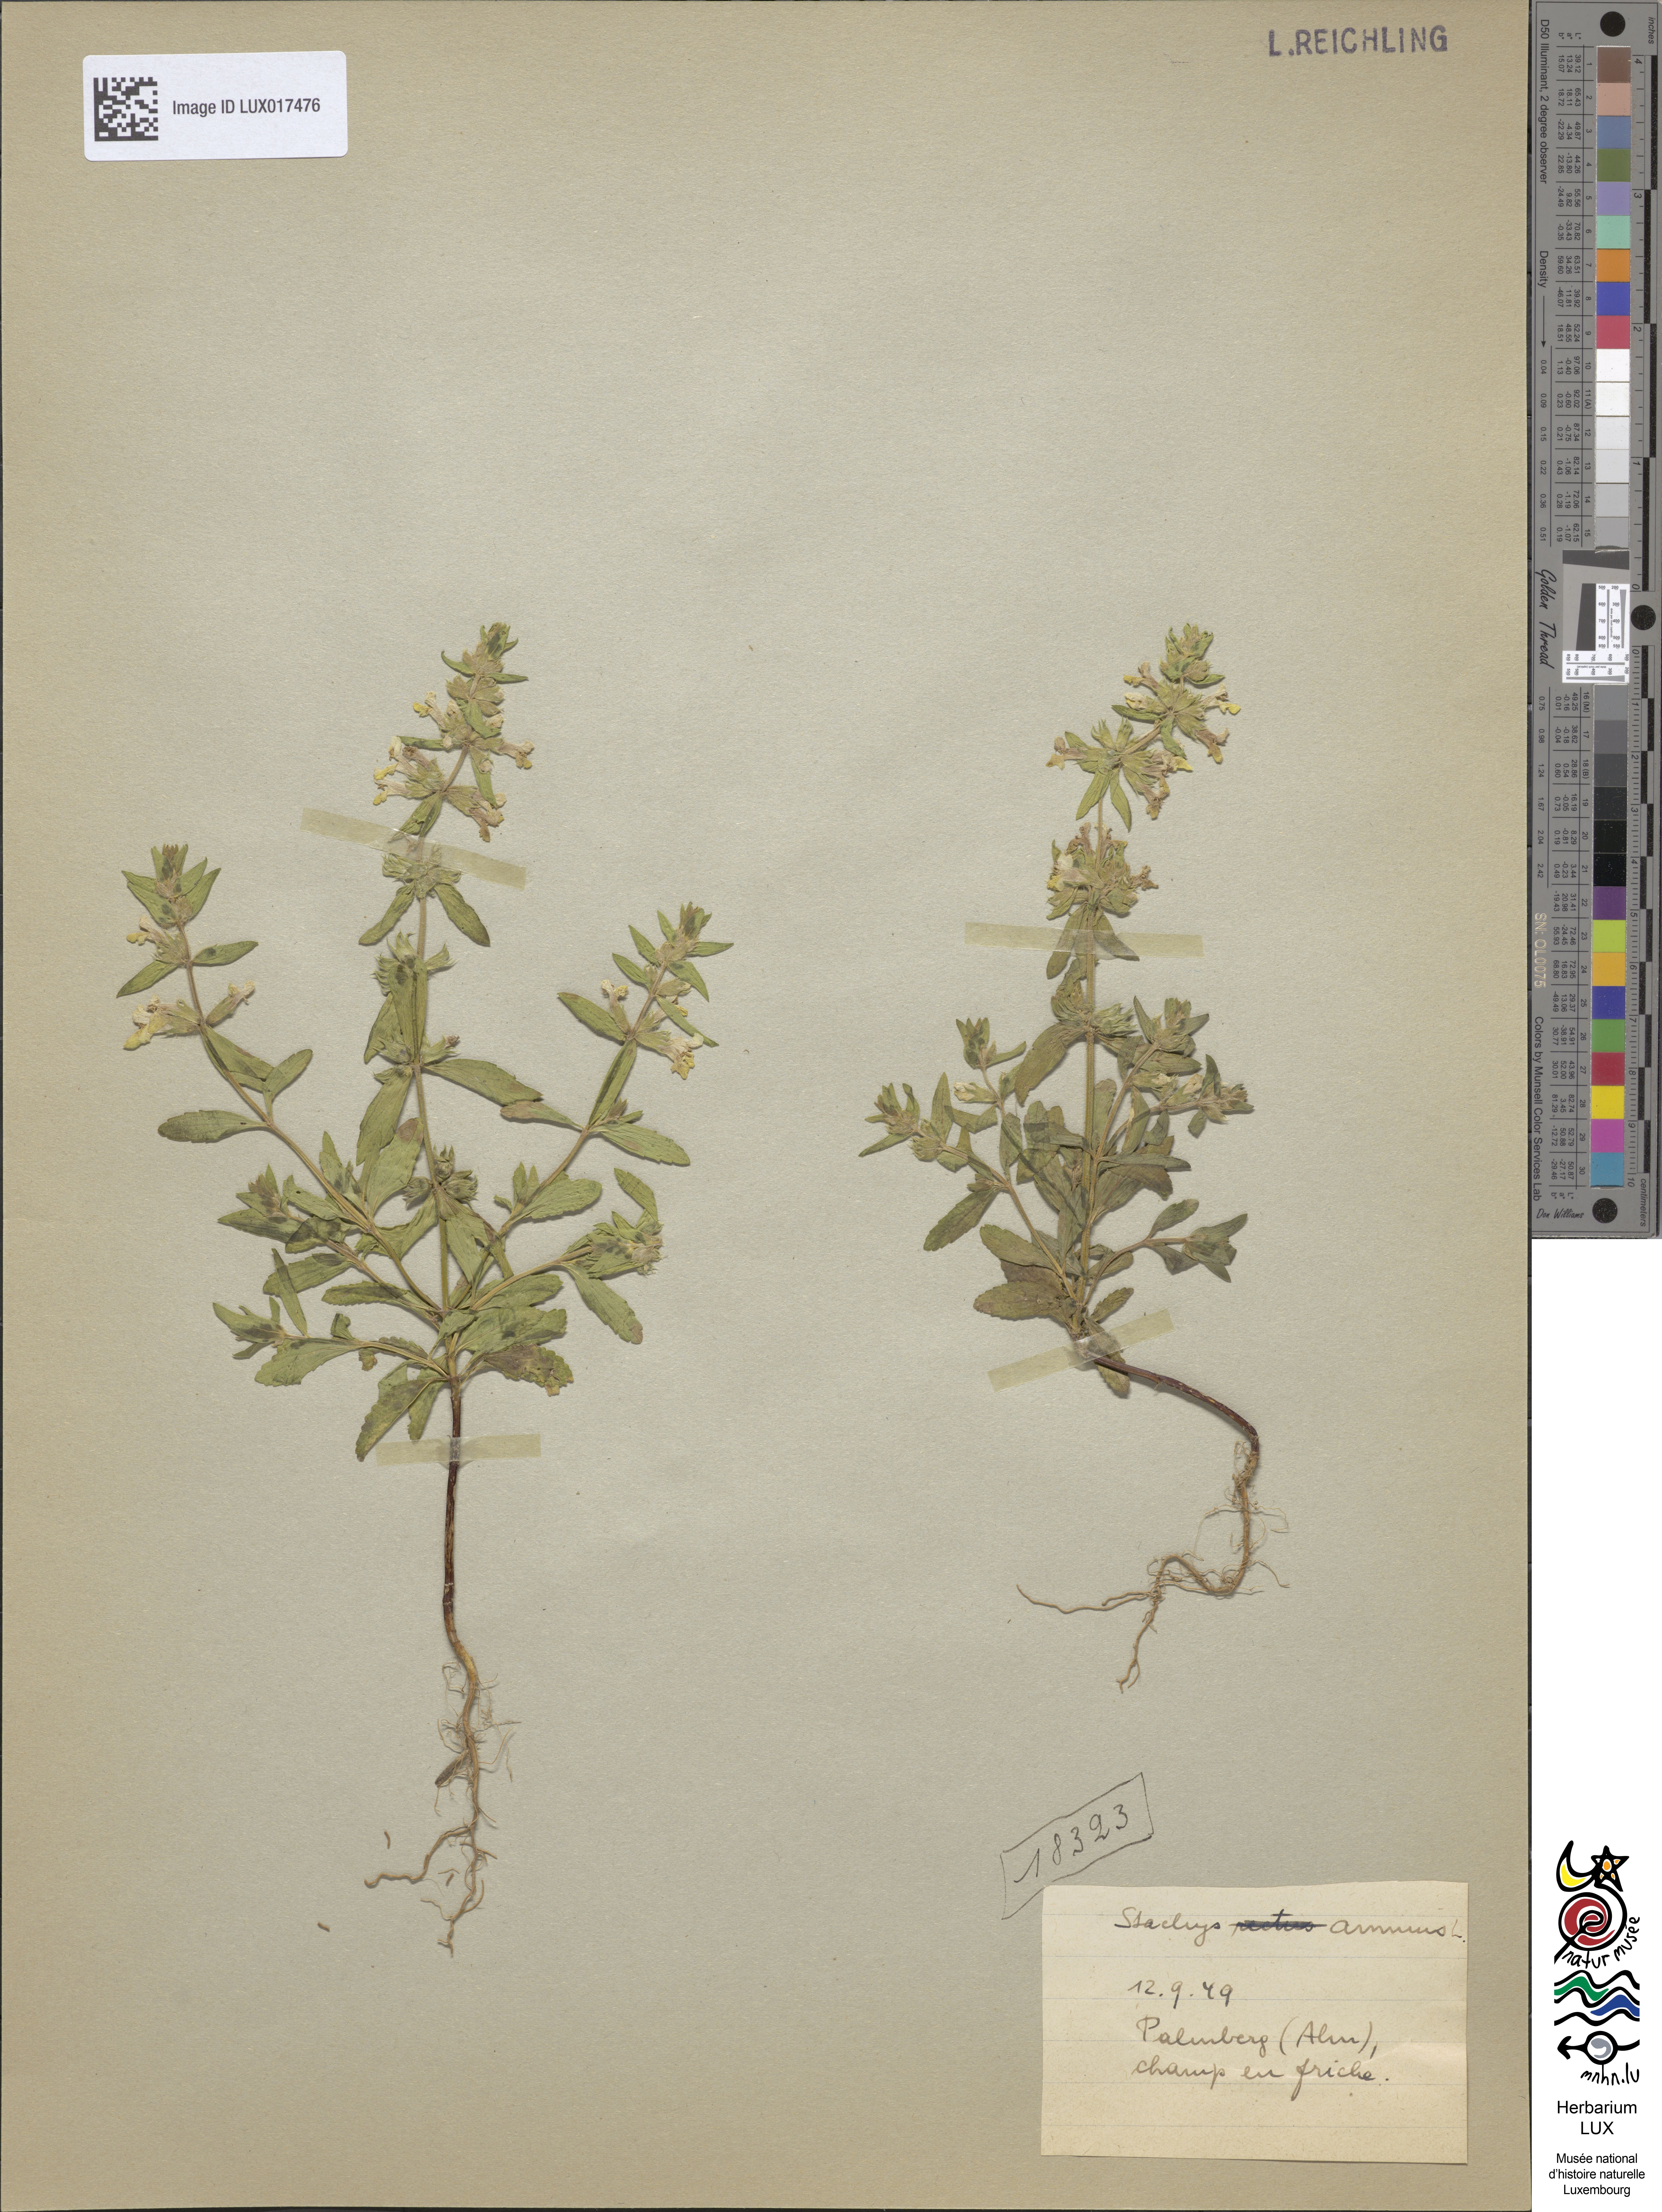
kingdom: Plantae
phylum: Tracheophyta
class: Magnoliopsida
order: Lamiales
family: Lamiaceae
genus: Stachys
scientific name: Stachys annua
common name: Annual yellow-woundwort
